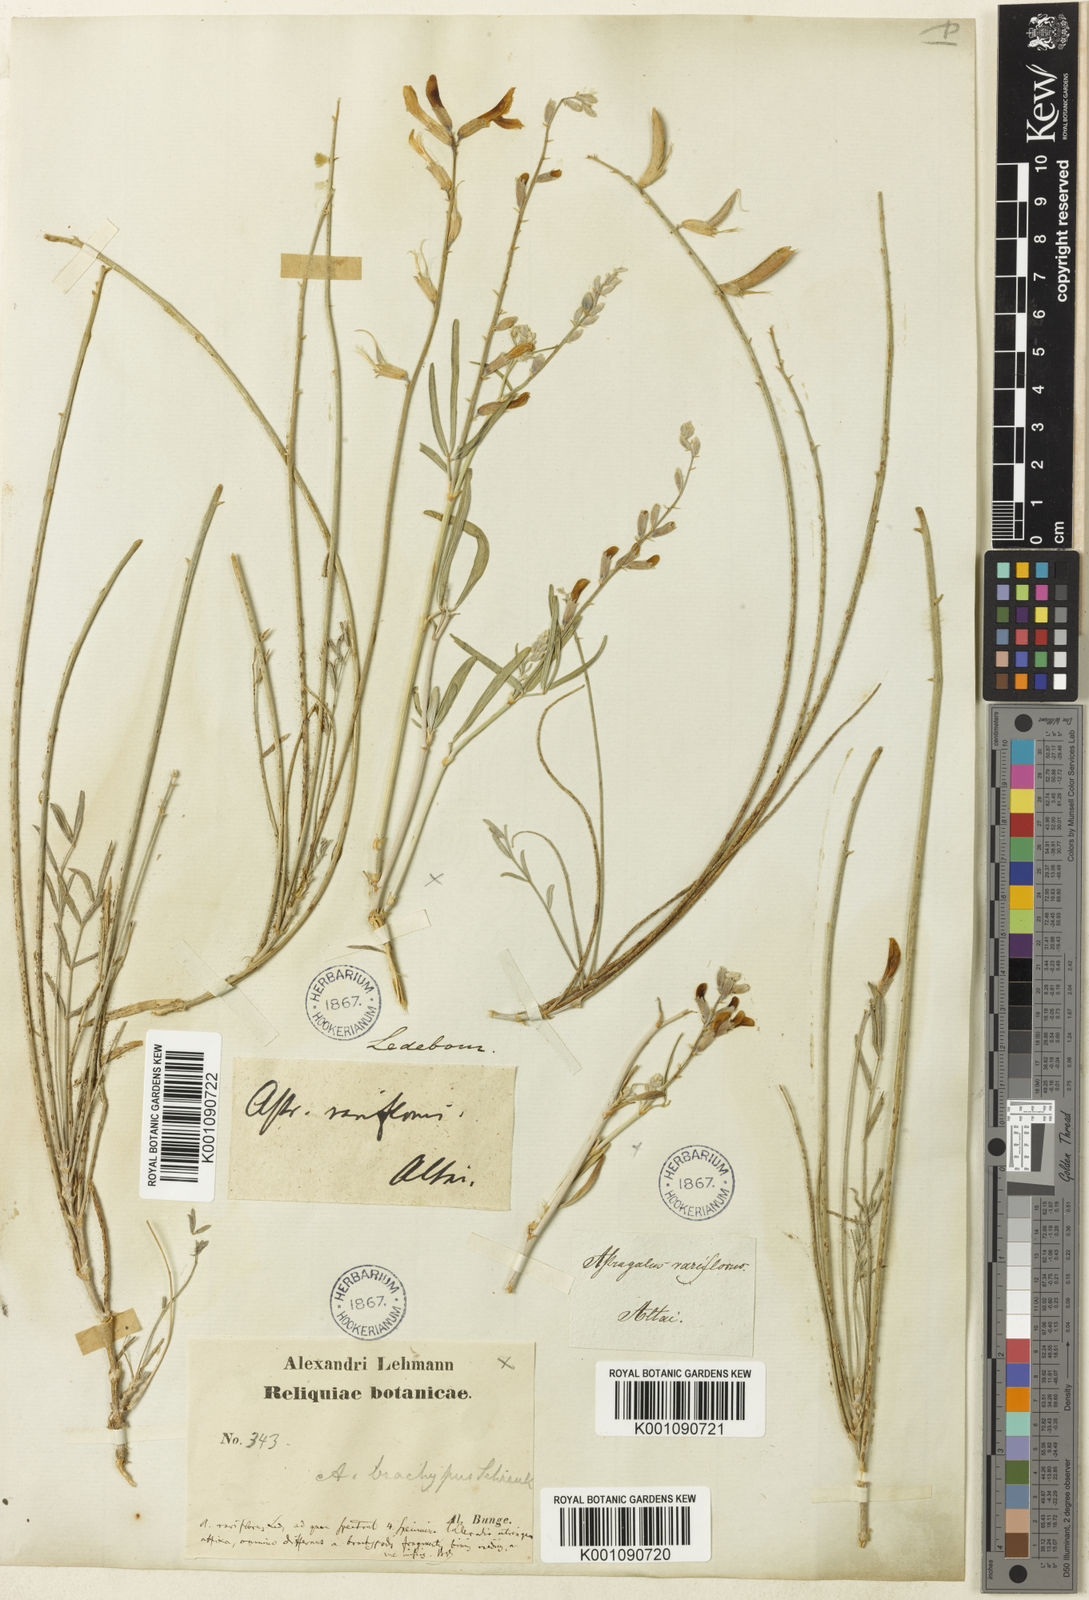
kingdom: Plantae
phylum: Tracheophyta
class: Magnoliopsida
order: Fabales
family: Fabaceae
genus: Astragalus
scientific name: Astragalus
